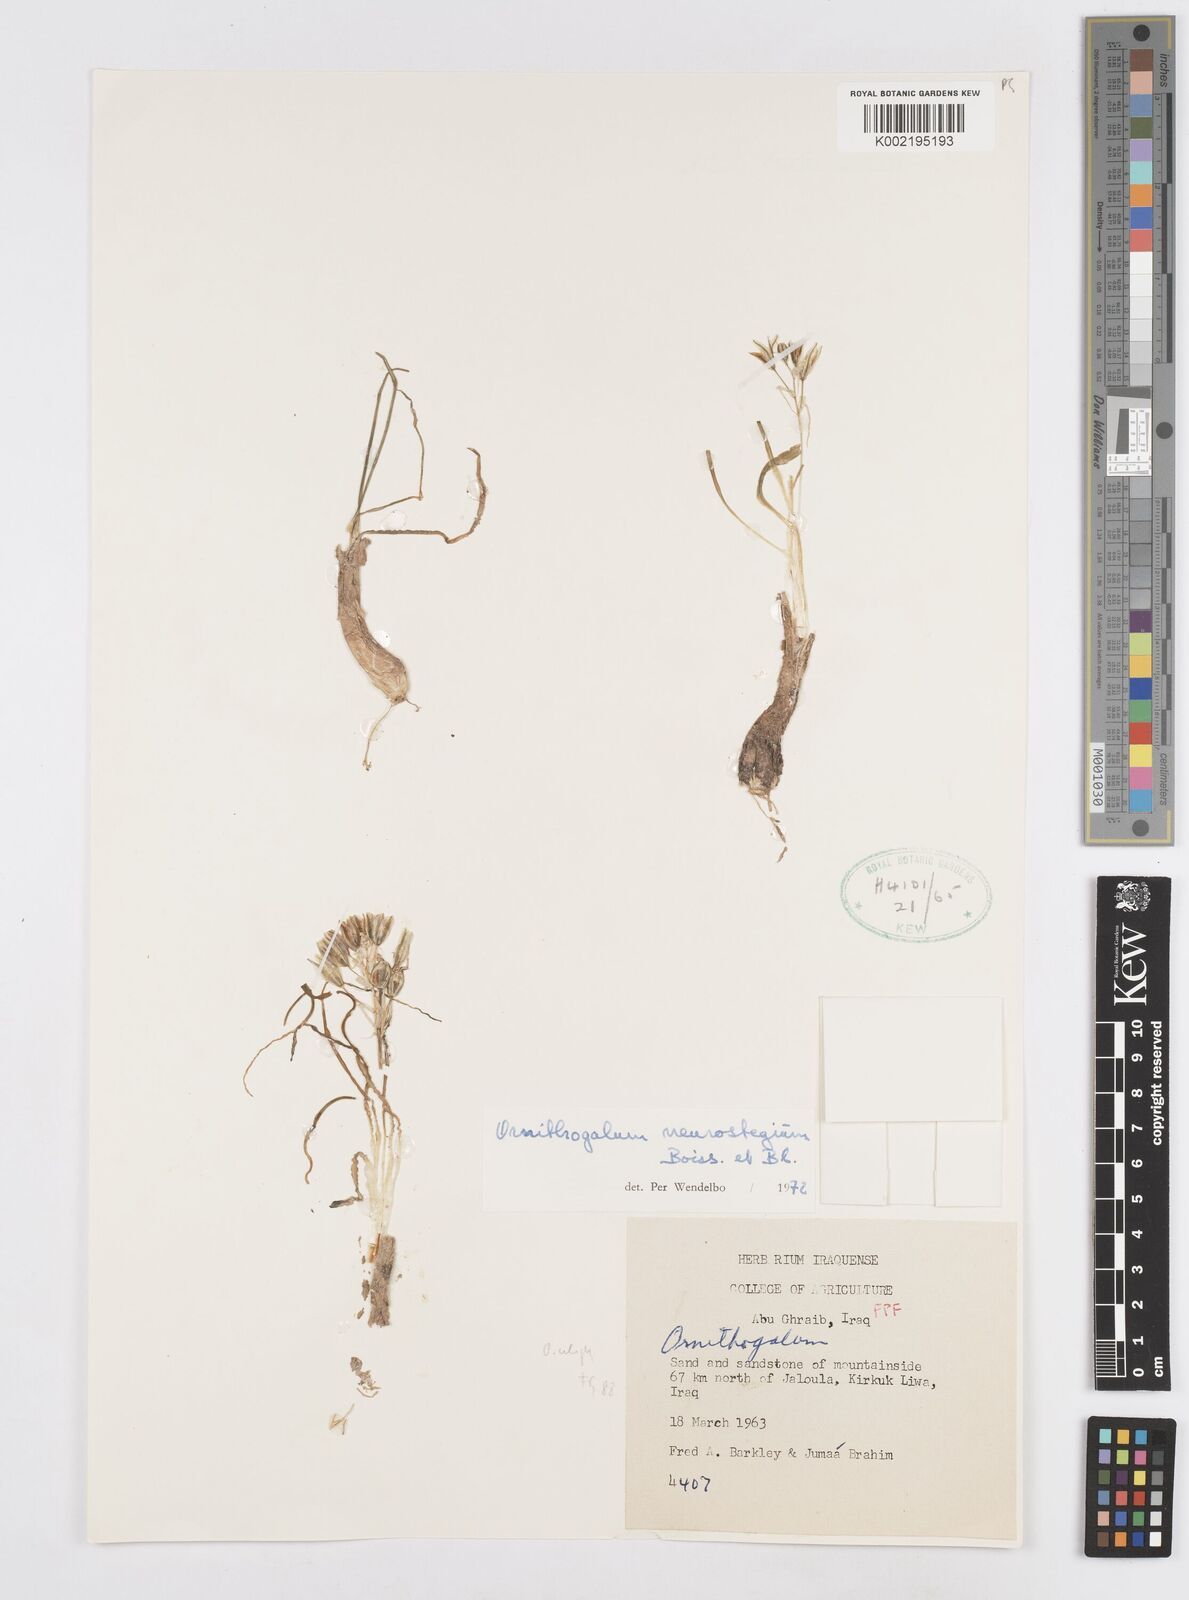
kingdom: Plantae
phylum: Tracheophyta
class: Liliopsida
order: Asparagales
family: Asparagaceae
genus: Ornithogalum
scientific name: Ornithogalum neurostegium
